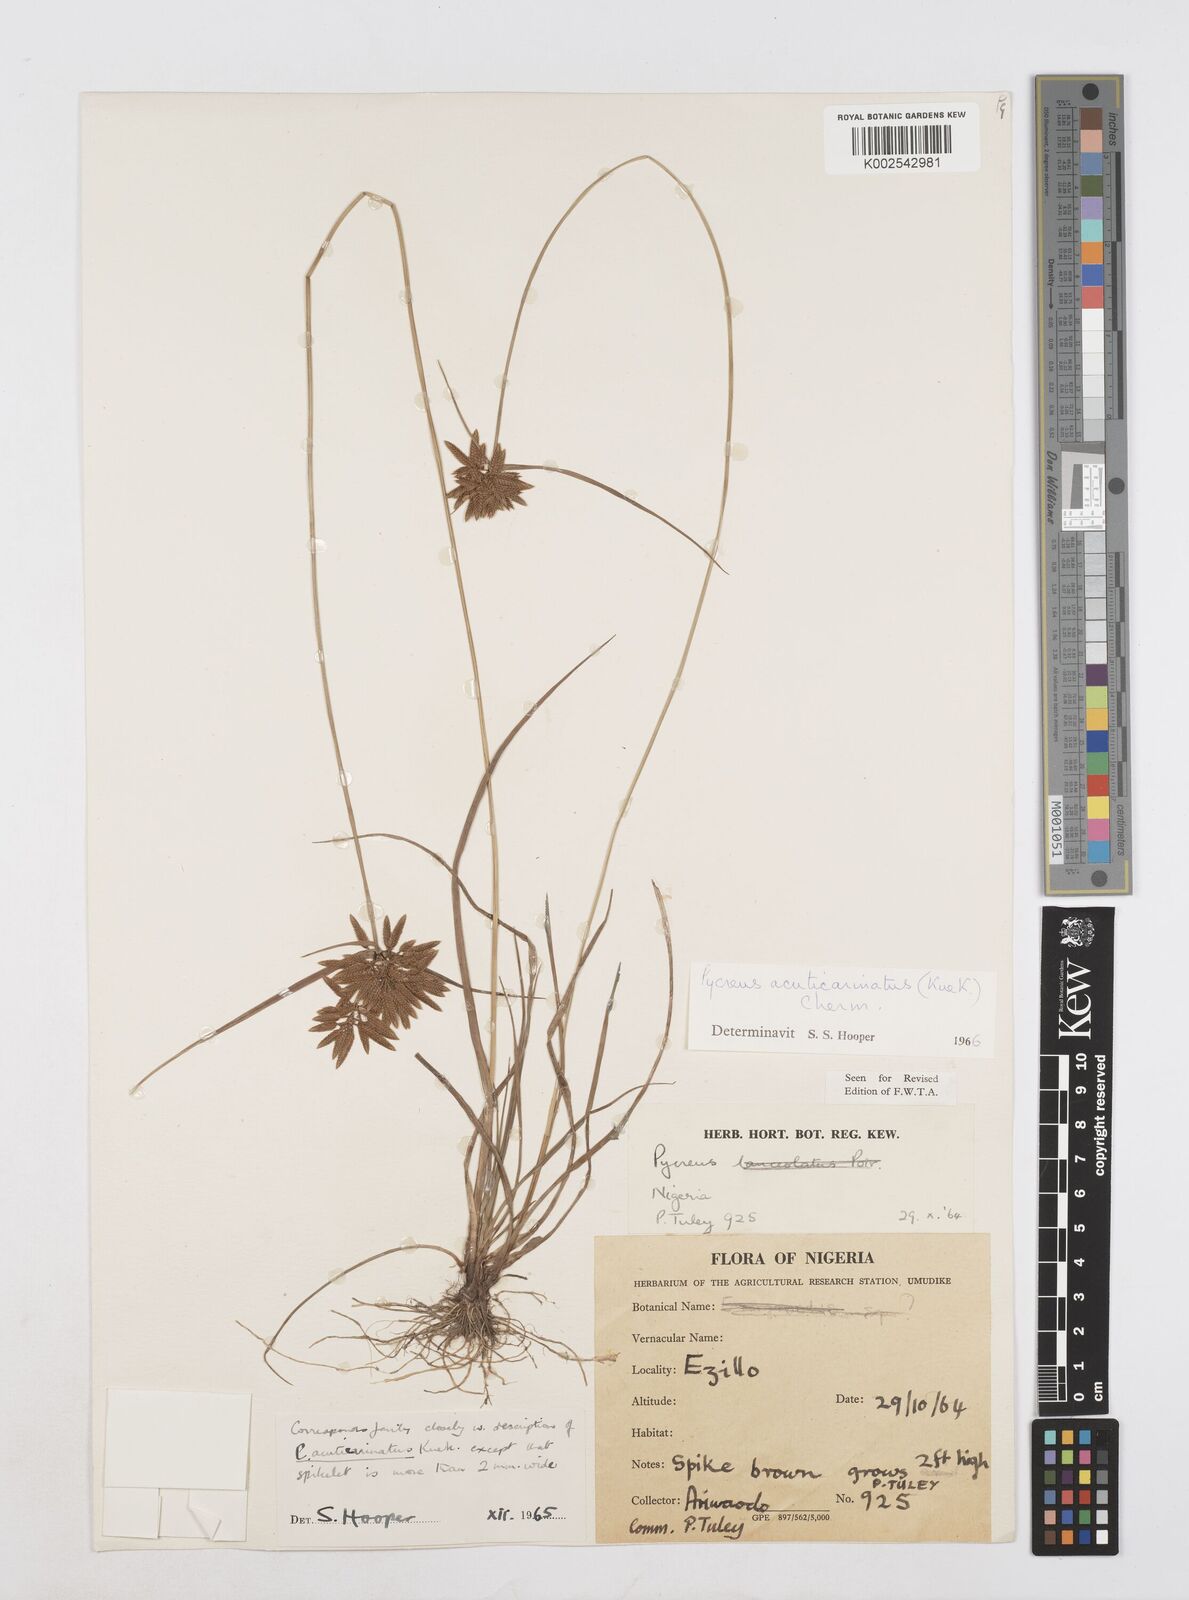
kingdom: Plantae
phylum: Tracheophyta
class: Liliopsida
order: Poales
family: Cyperaceae
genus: Cyperus
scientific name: Cyperus acuticarinatus
